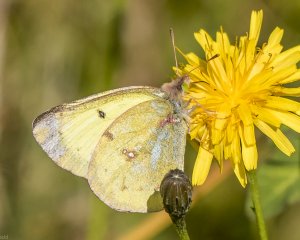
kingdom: Animalia
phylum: Arthropoda
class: Insecta
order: Lepidoptera
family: Pieridae
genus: Colias
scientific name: Colias philodice
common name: Clouded Sulphur
